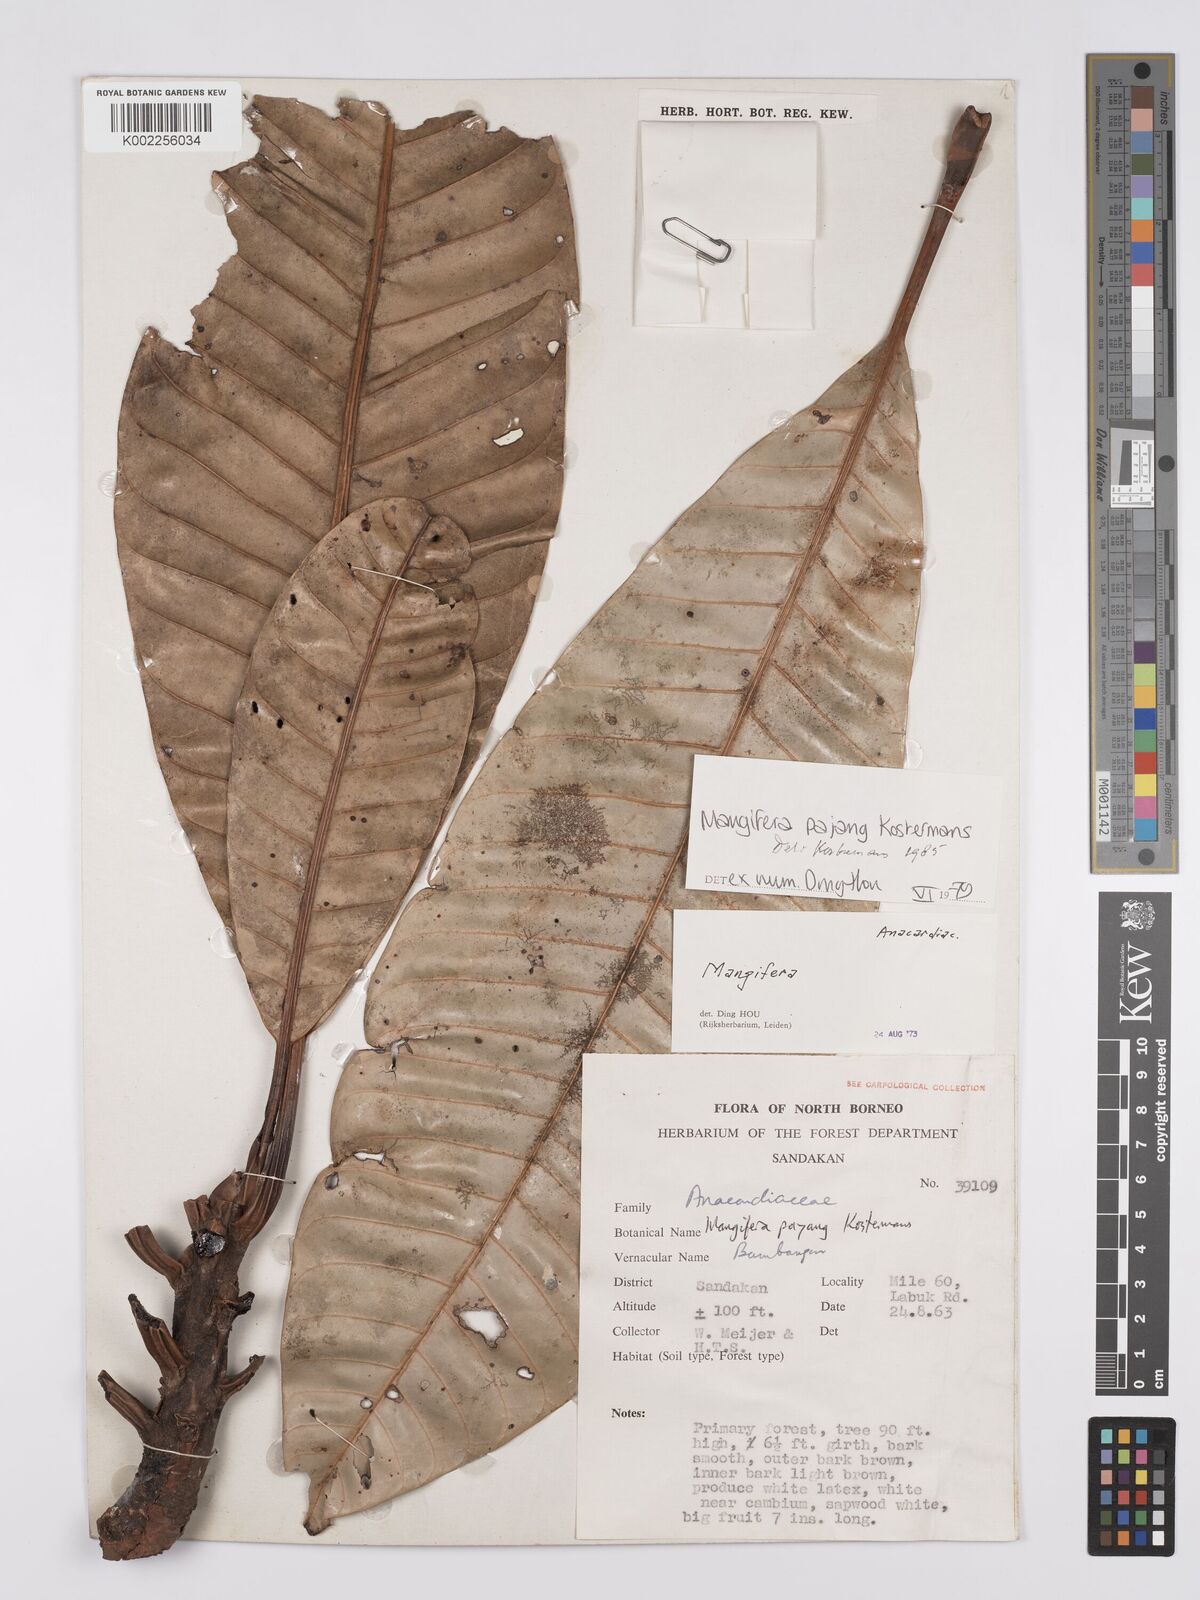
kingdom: Plantae
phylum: Tracheophyta
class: Magnoliopsida
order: Sapindales
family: Anacardiaceae
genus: Mangifera
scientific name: Mangifera pajang
